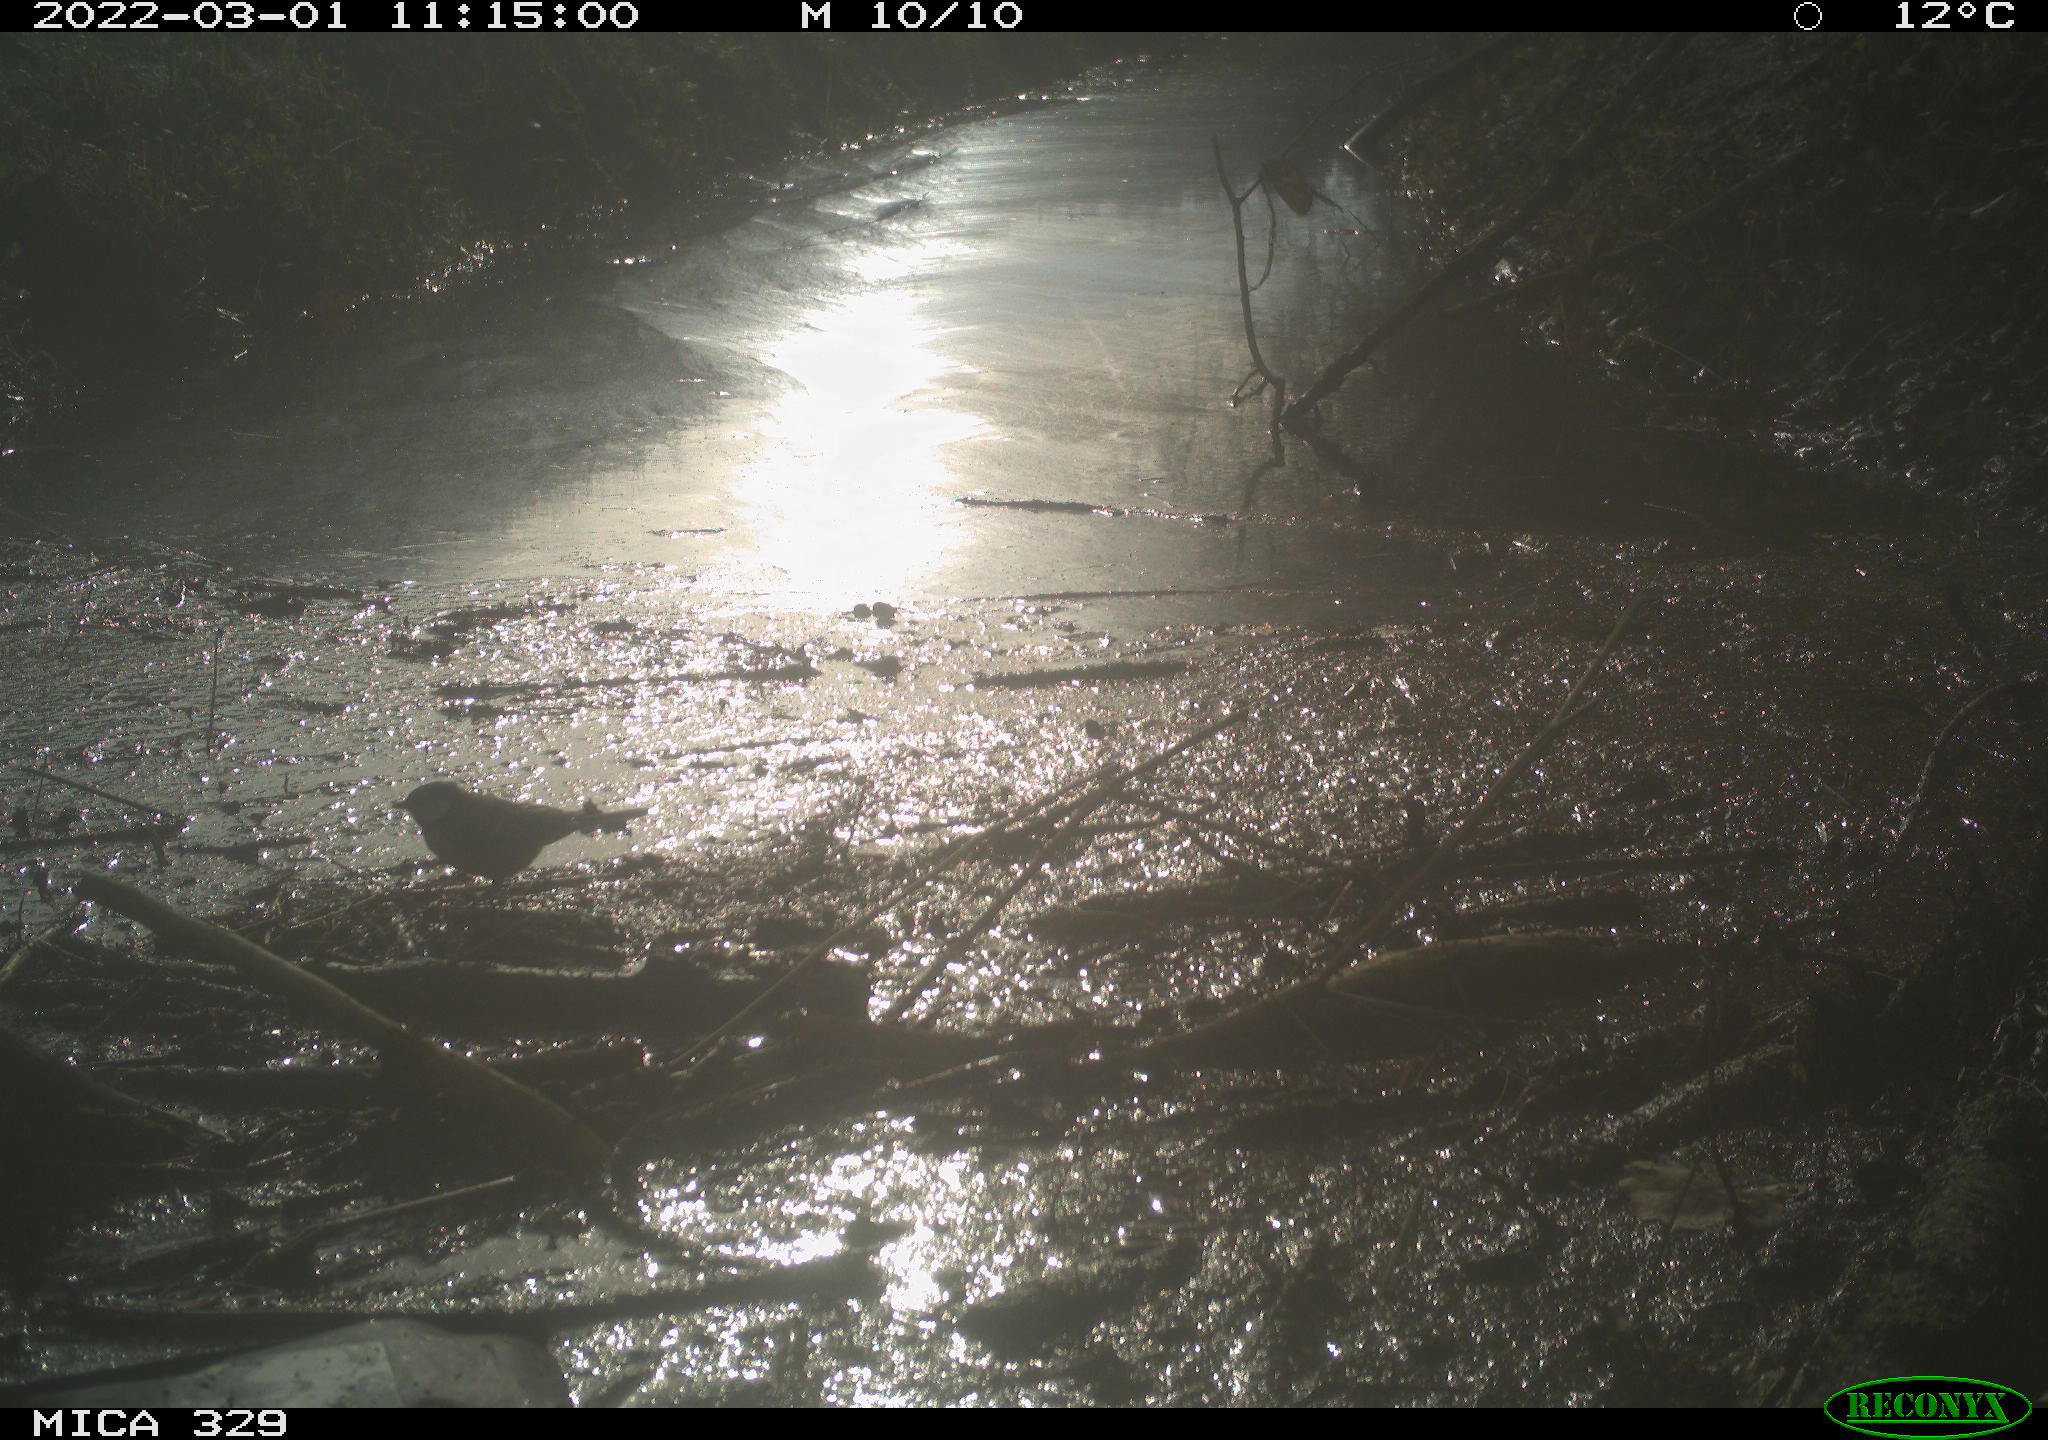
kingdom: Animalia
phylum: Chordata
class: Aves
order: Passeriformes
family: Paridae
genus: Parus
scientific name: Parus major
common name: Great tit
